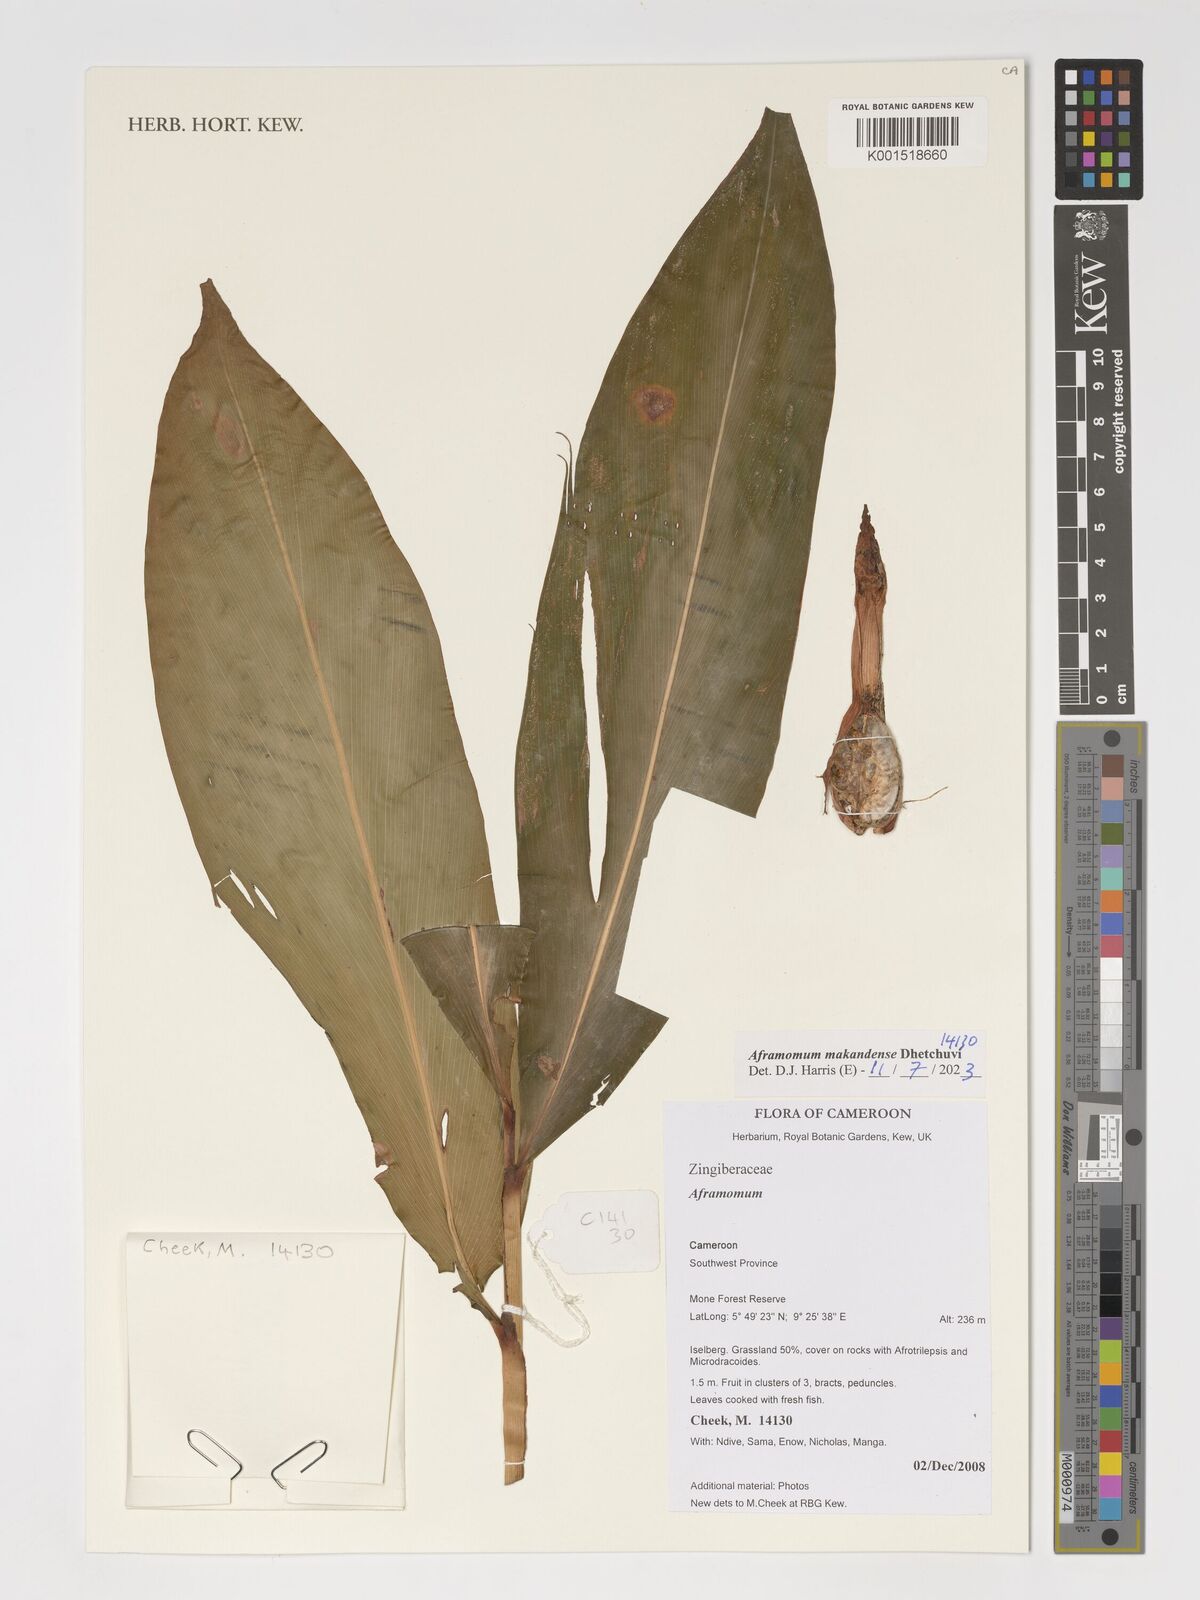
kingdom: Plantae
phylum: Tracheophyta
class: Liliopsida
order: Zingiberales
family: Zingiberaceae
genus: Aframomum
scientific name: Aframomum makandensis
